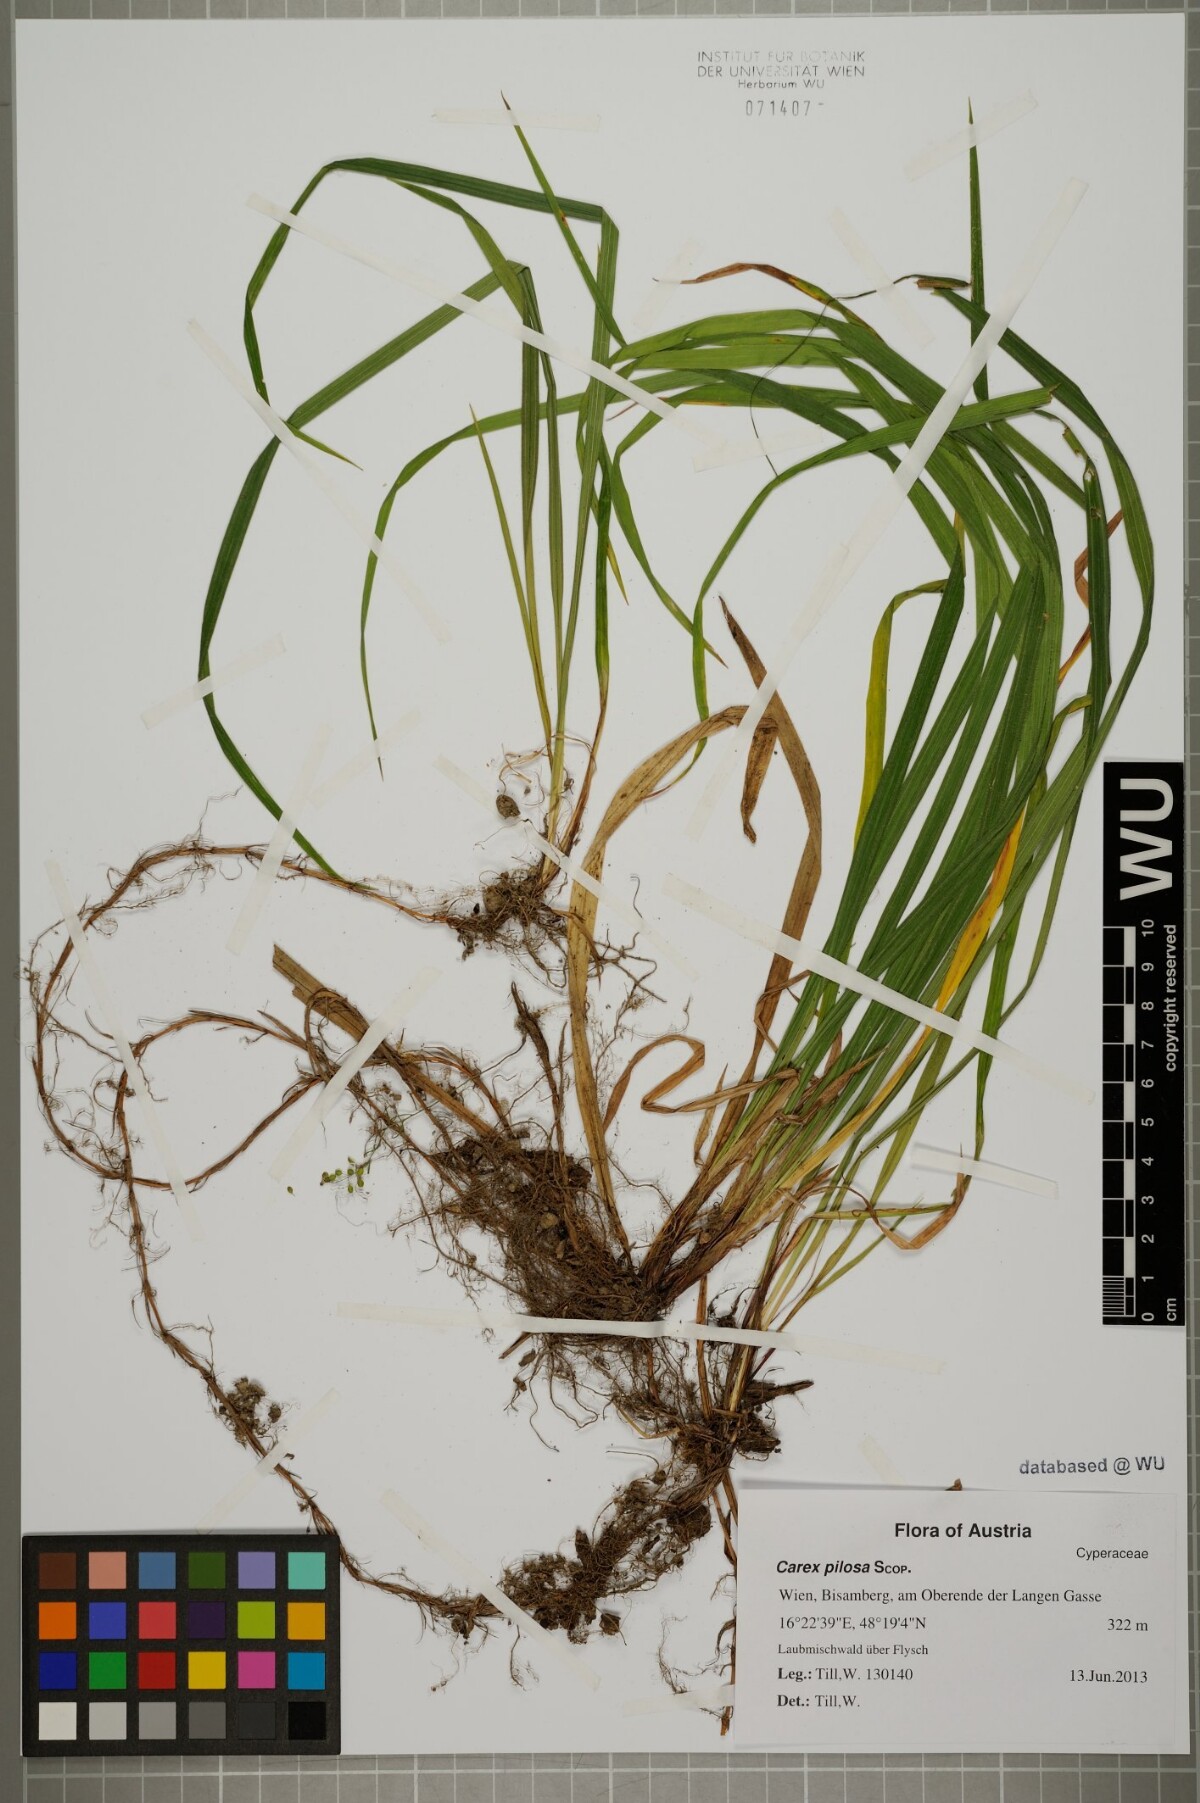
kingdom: Plantae
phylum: Tracheophyta
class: Liliopsida
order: Poales
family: Cyperaceae
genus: Carex
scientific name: Carex pilosa
